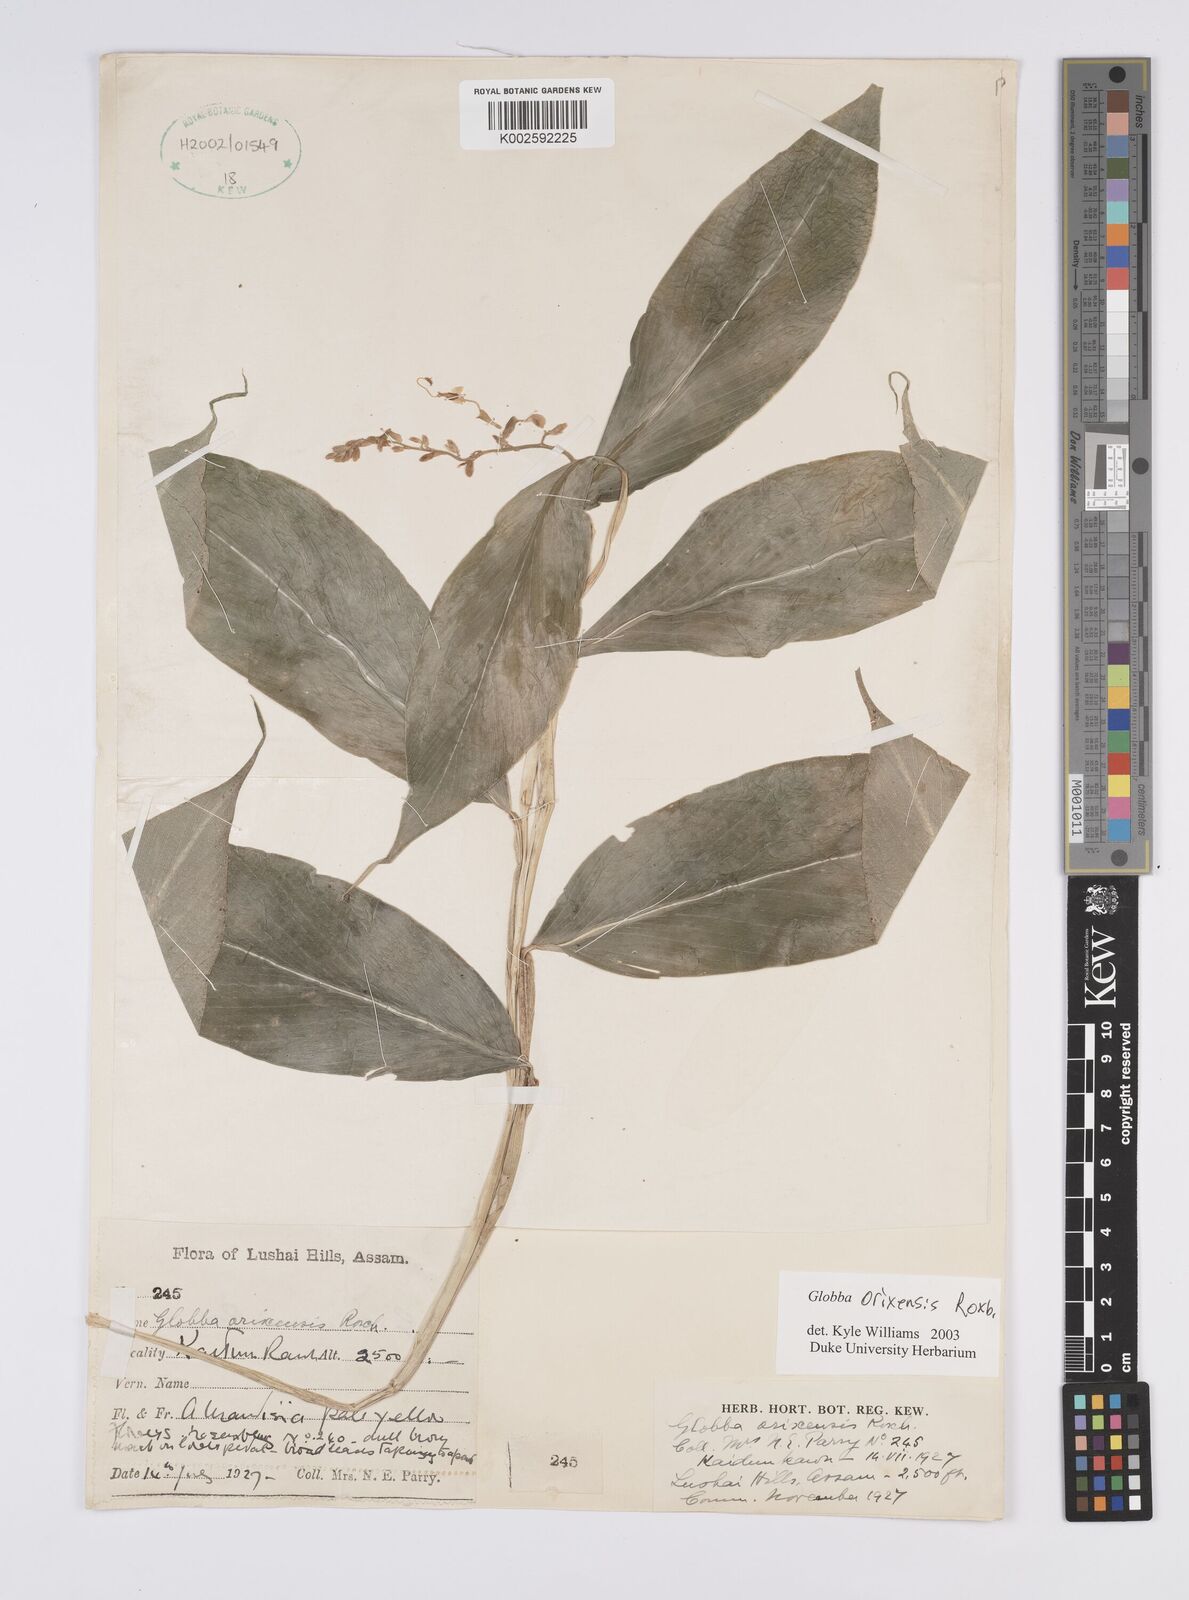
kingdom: Plantae
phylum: Tracheophyta
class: Liliopsida
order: Zingiberales
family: Zingiberaceae
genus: Globba
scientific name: Globba orixensis
